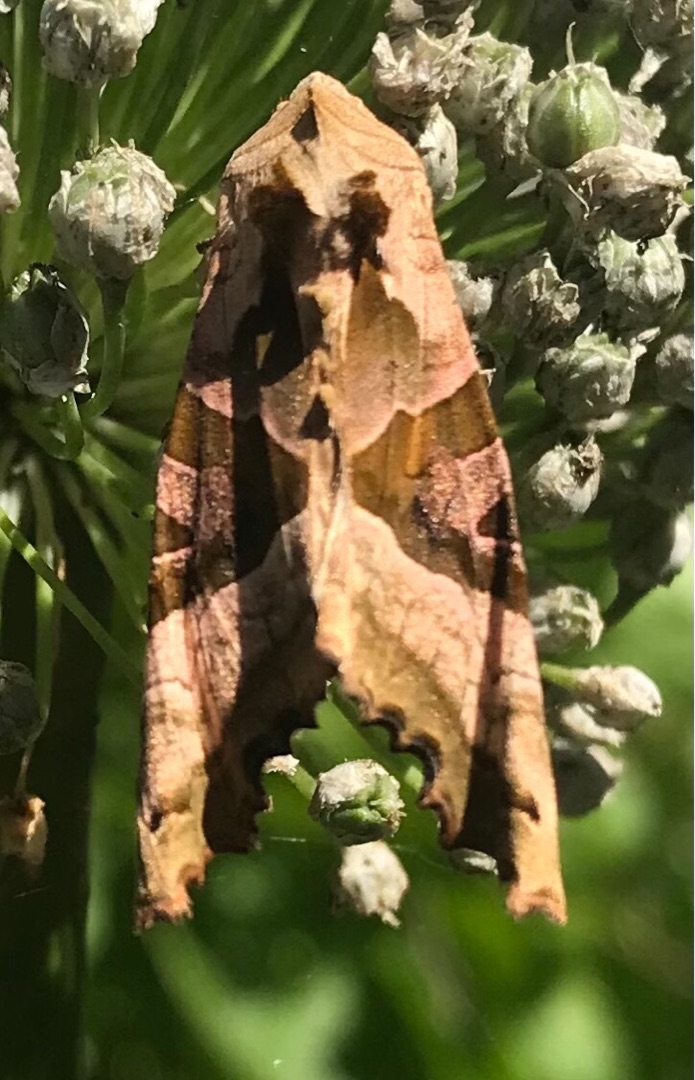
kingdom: Animalia
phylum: Arthropoda
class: Insecta
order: Lepidoptera
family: Noctuidae
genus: Phlogophora
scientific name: Phlogophora meticulosa
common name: Agatugle
